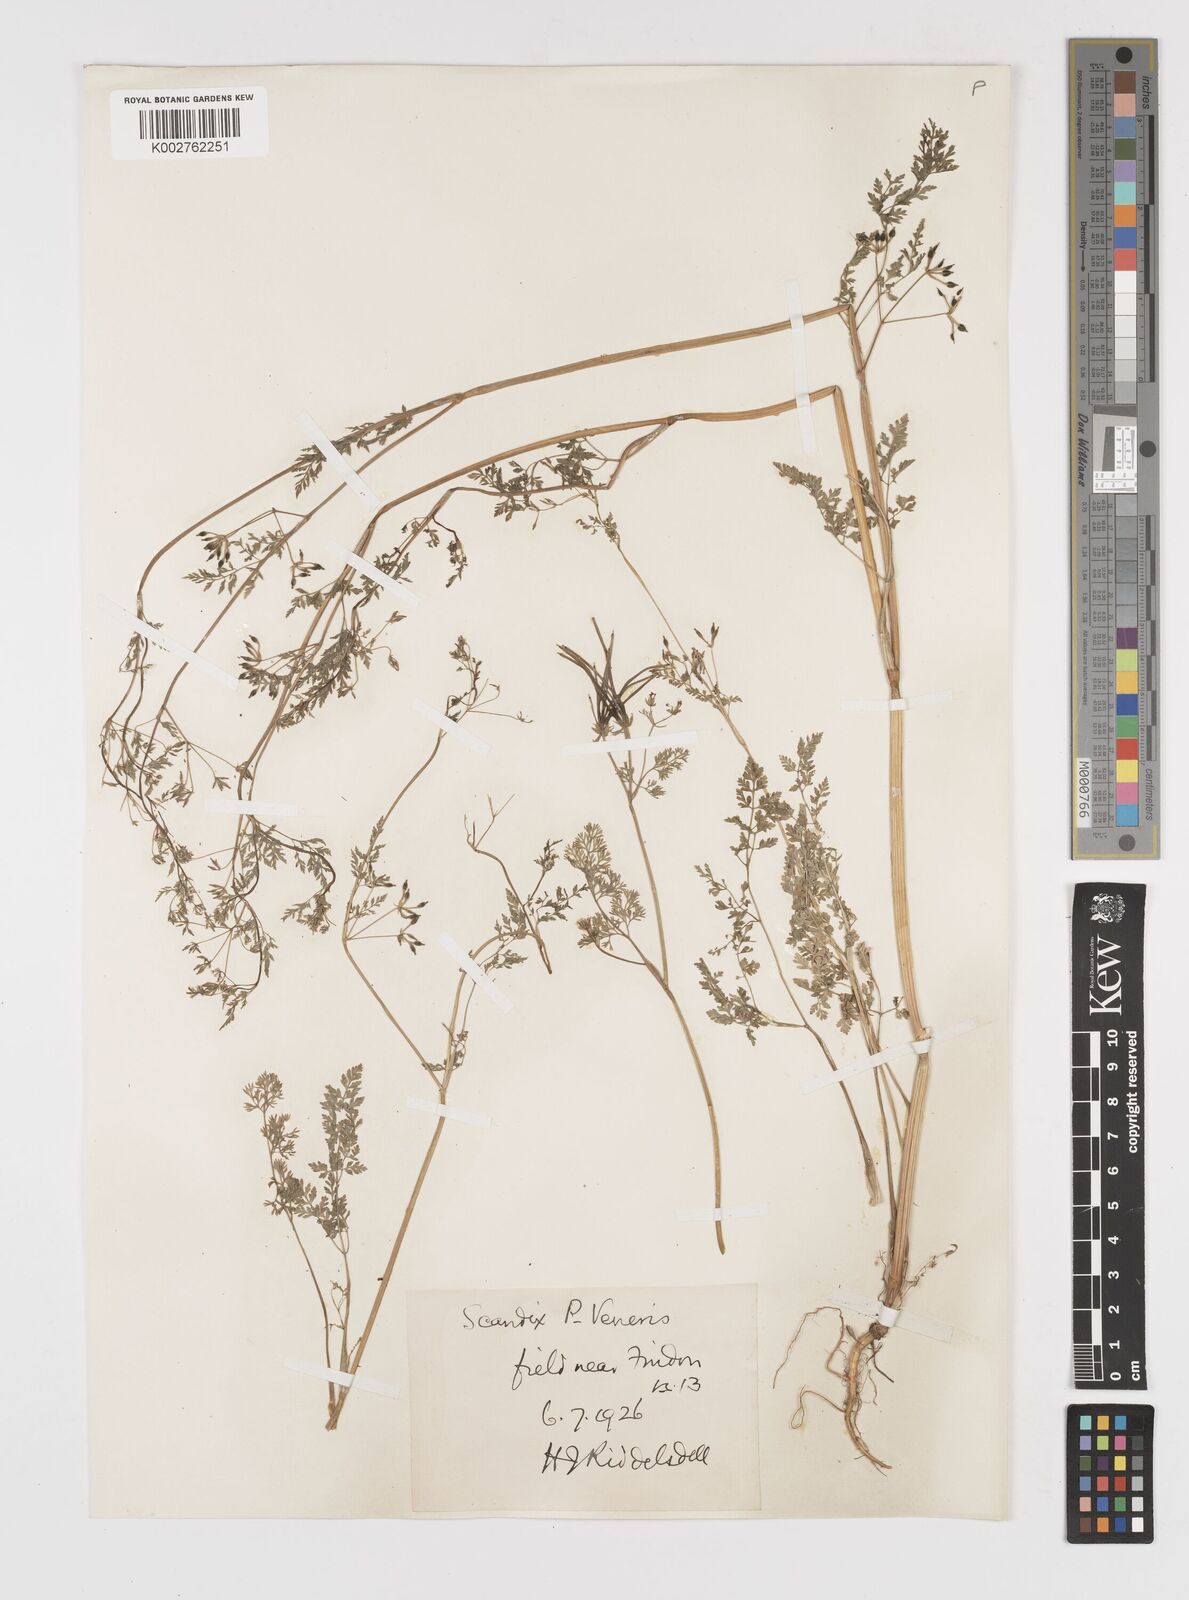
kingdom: Plantae
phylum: Tracheophyta
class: Magnoliopsida
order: Apiales
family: Apiaceae
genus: Scandix
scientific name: Scandix pecten-veneris
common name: Shepherd's-needle
